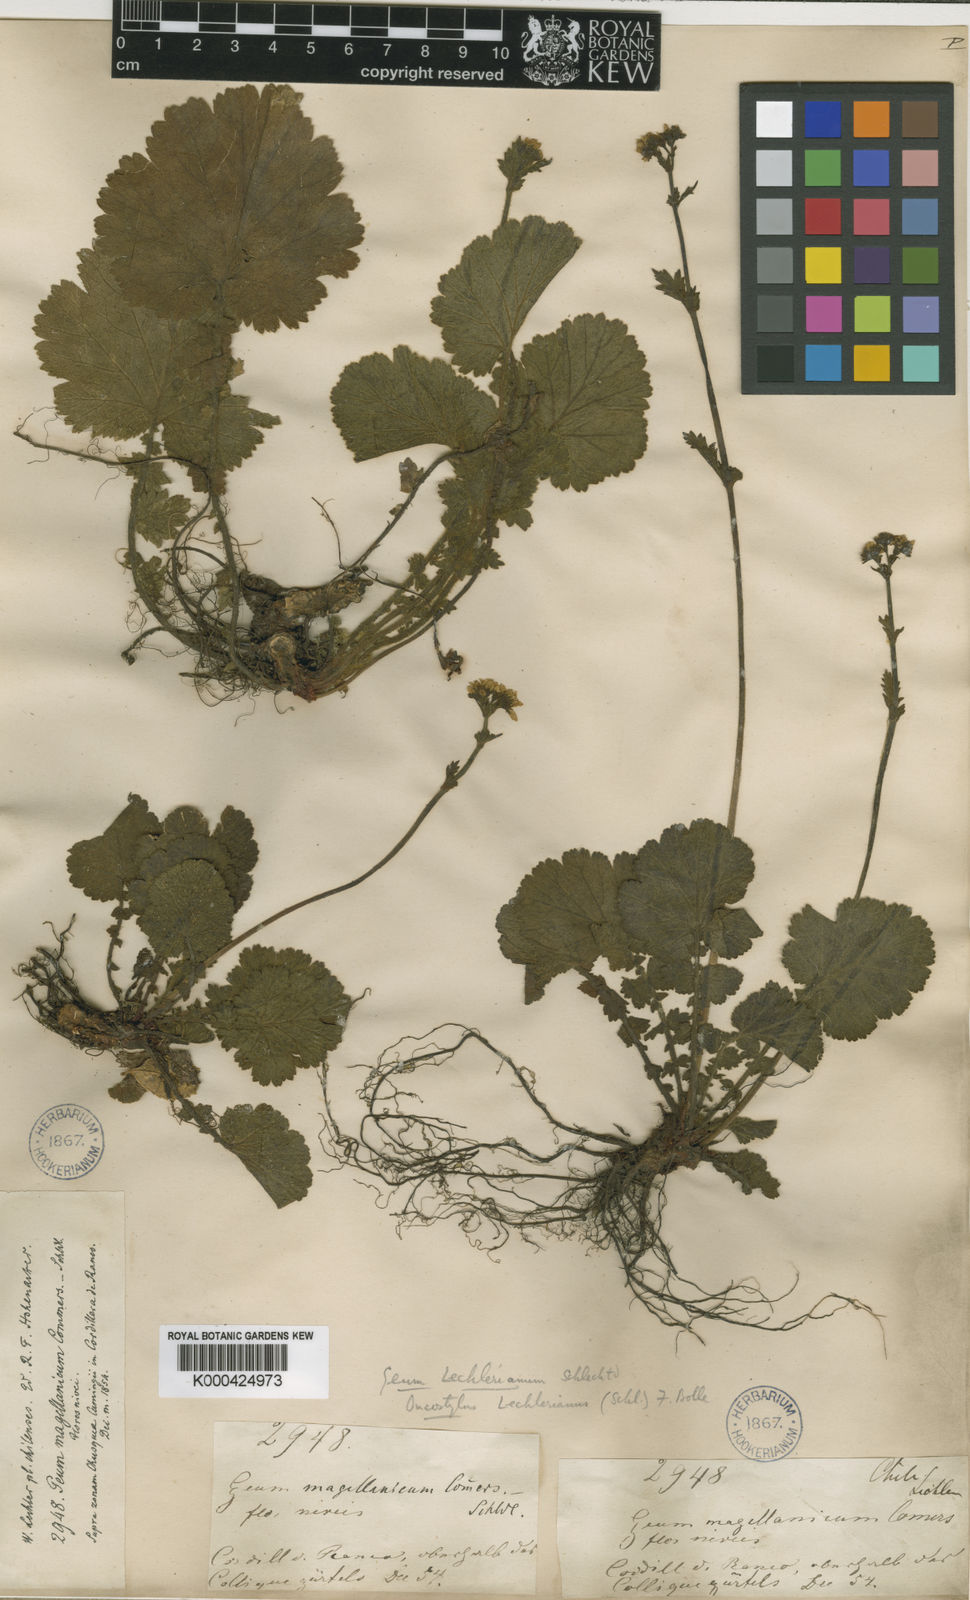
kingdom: Plantae
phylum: Tracheophyta
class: Magnoliopsida
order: Rosales
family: Rosaceae
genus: Geum
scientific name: Geum lechlerianum
